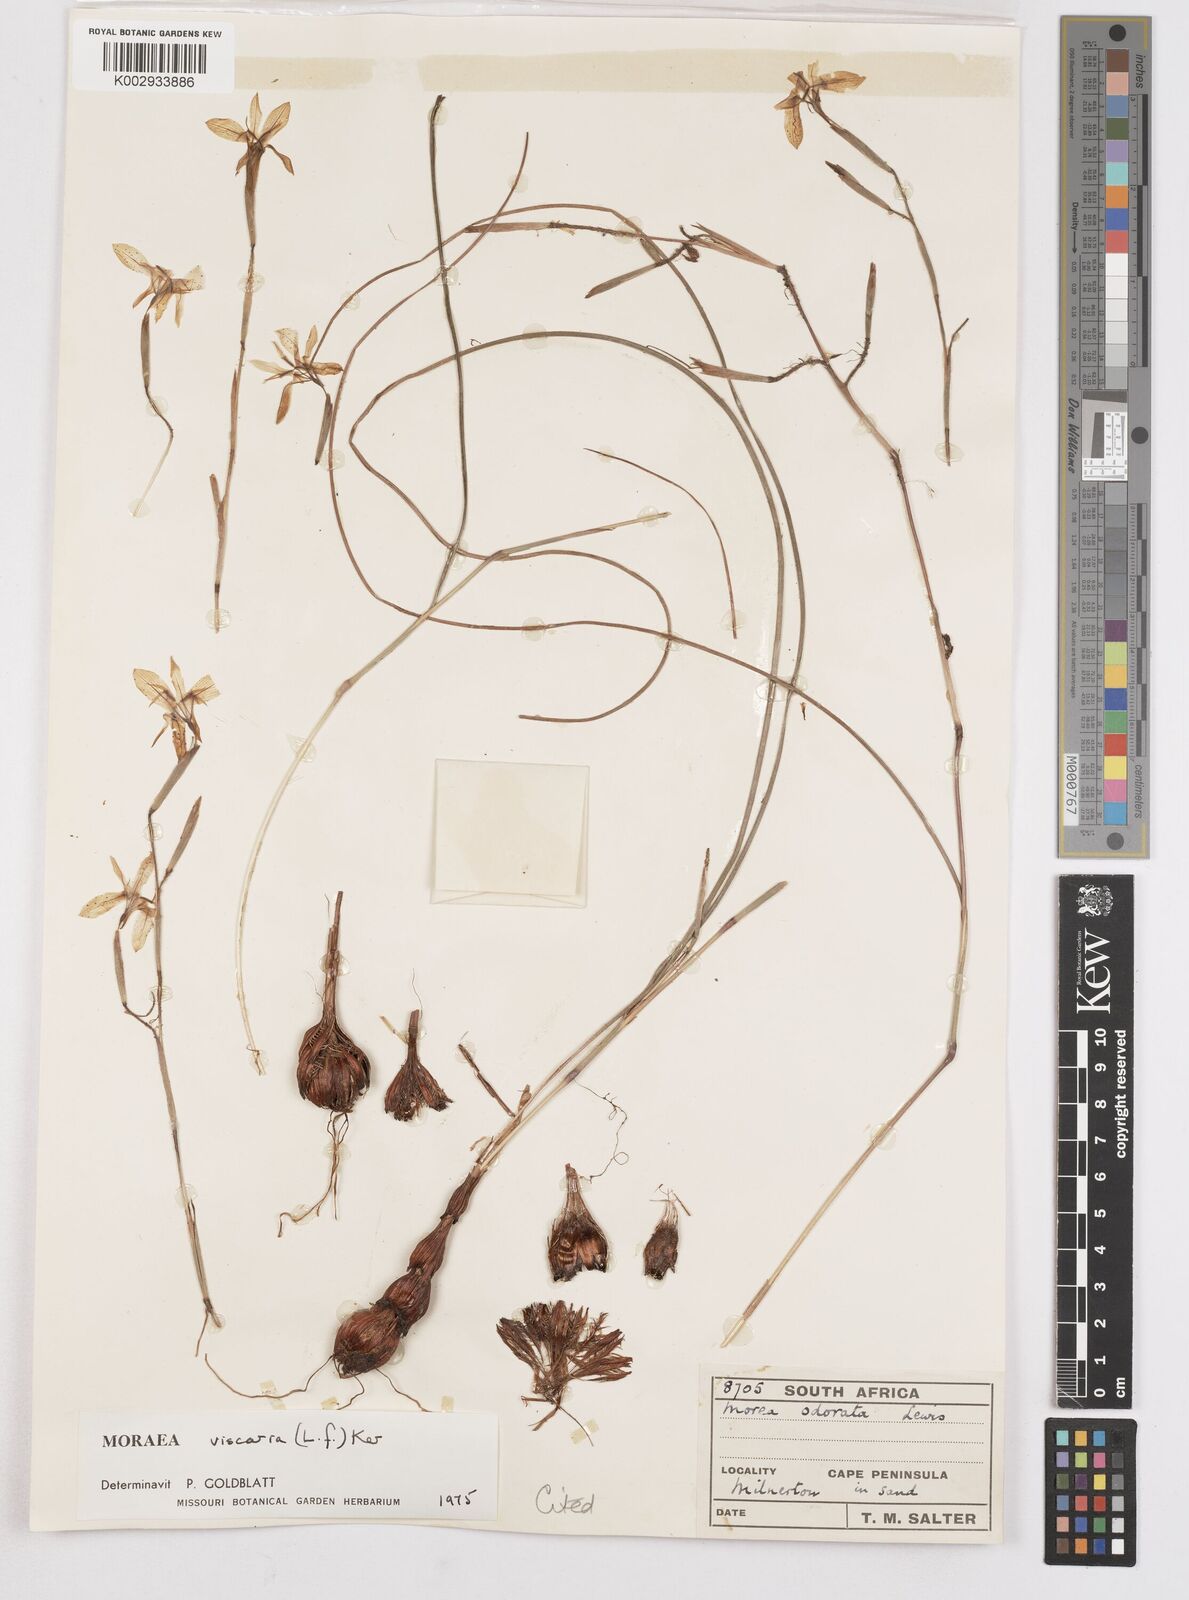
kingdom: Plantae
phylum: Tracheophyta
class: Liliopsida
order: Asparagales
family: Iridaceae
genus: Moraea
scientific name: Moraea viscaria
